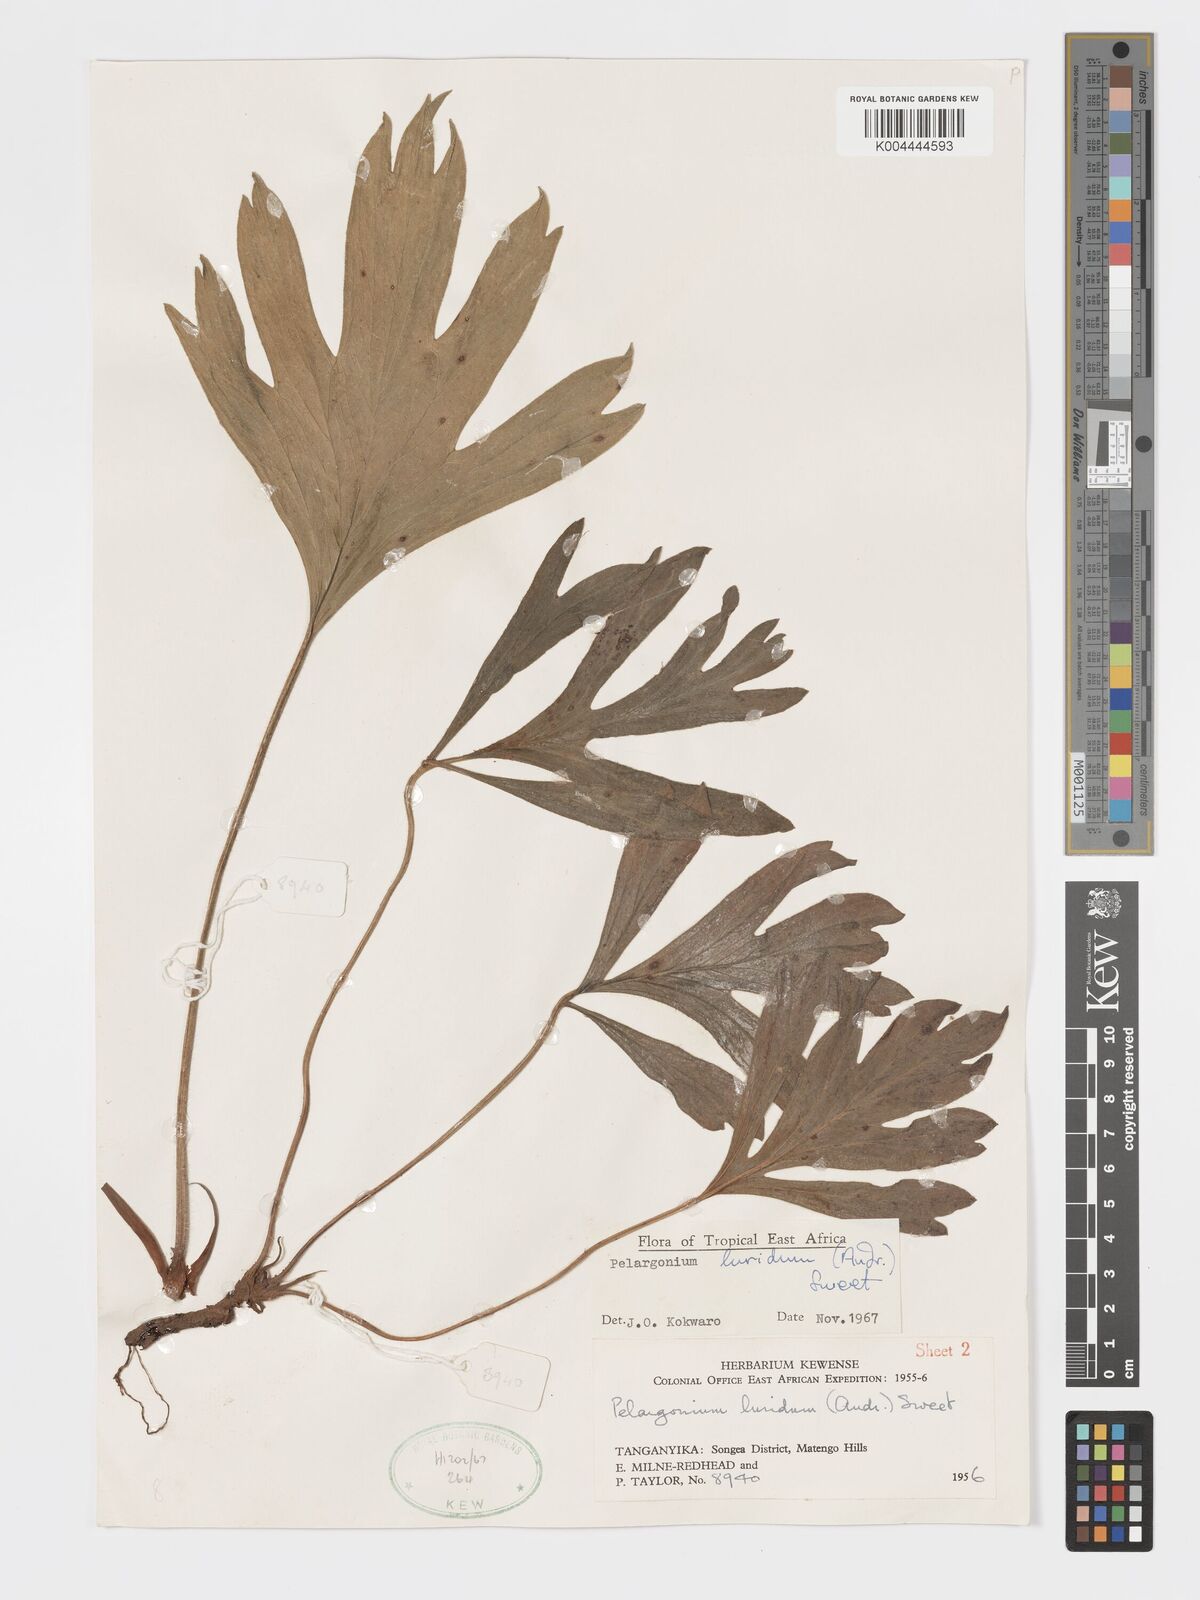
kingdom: Plantae
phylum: Tracheophyta
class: Magnoliopsida
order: Geraniales
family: Geraniaceae
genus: Pelargonium
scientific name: Pelargonium luridum
